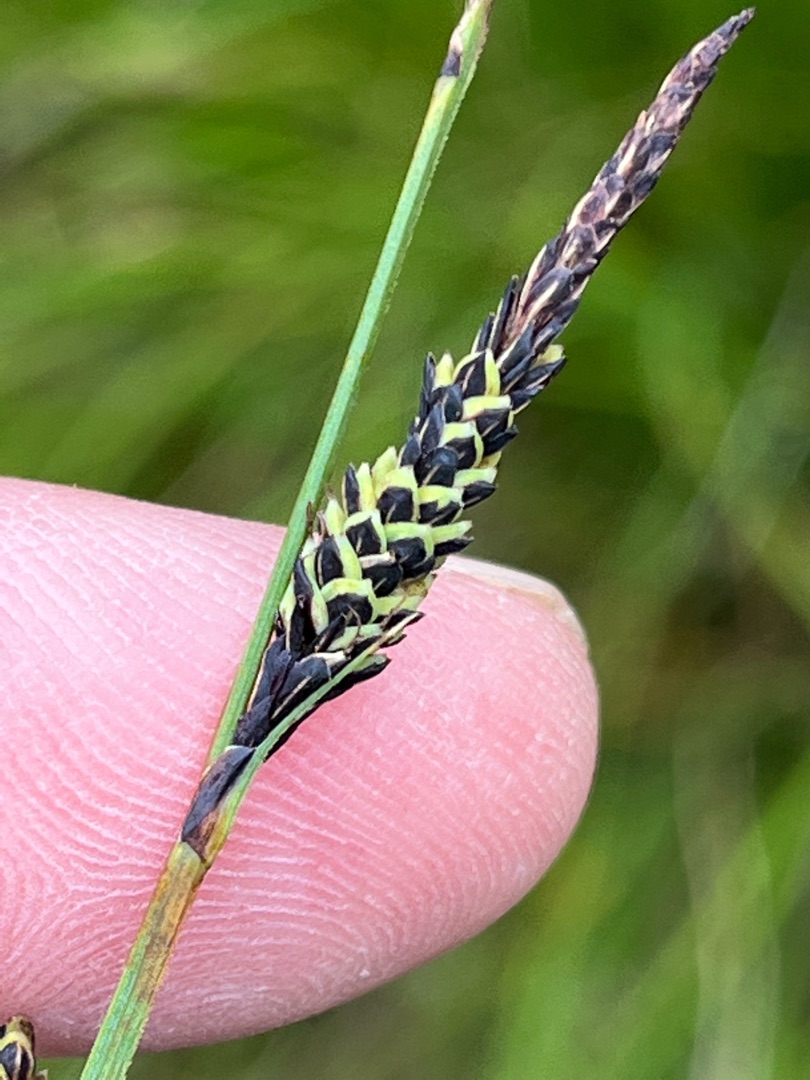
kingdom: Plantae
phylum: Tracheophyta
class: Liliopsida
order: Poales
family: Cyperaceae
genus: Carex
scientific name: Carex nigra
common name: Almindelig star
